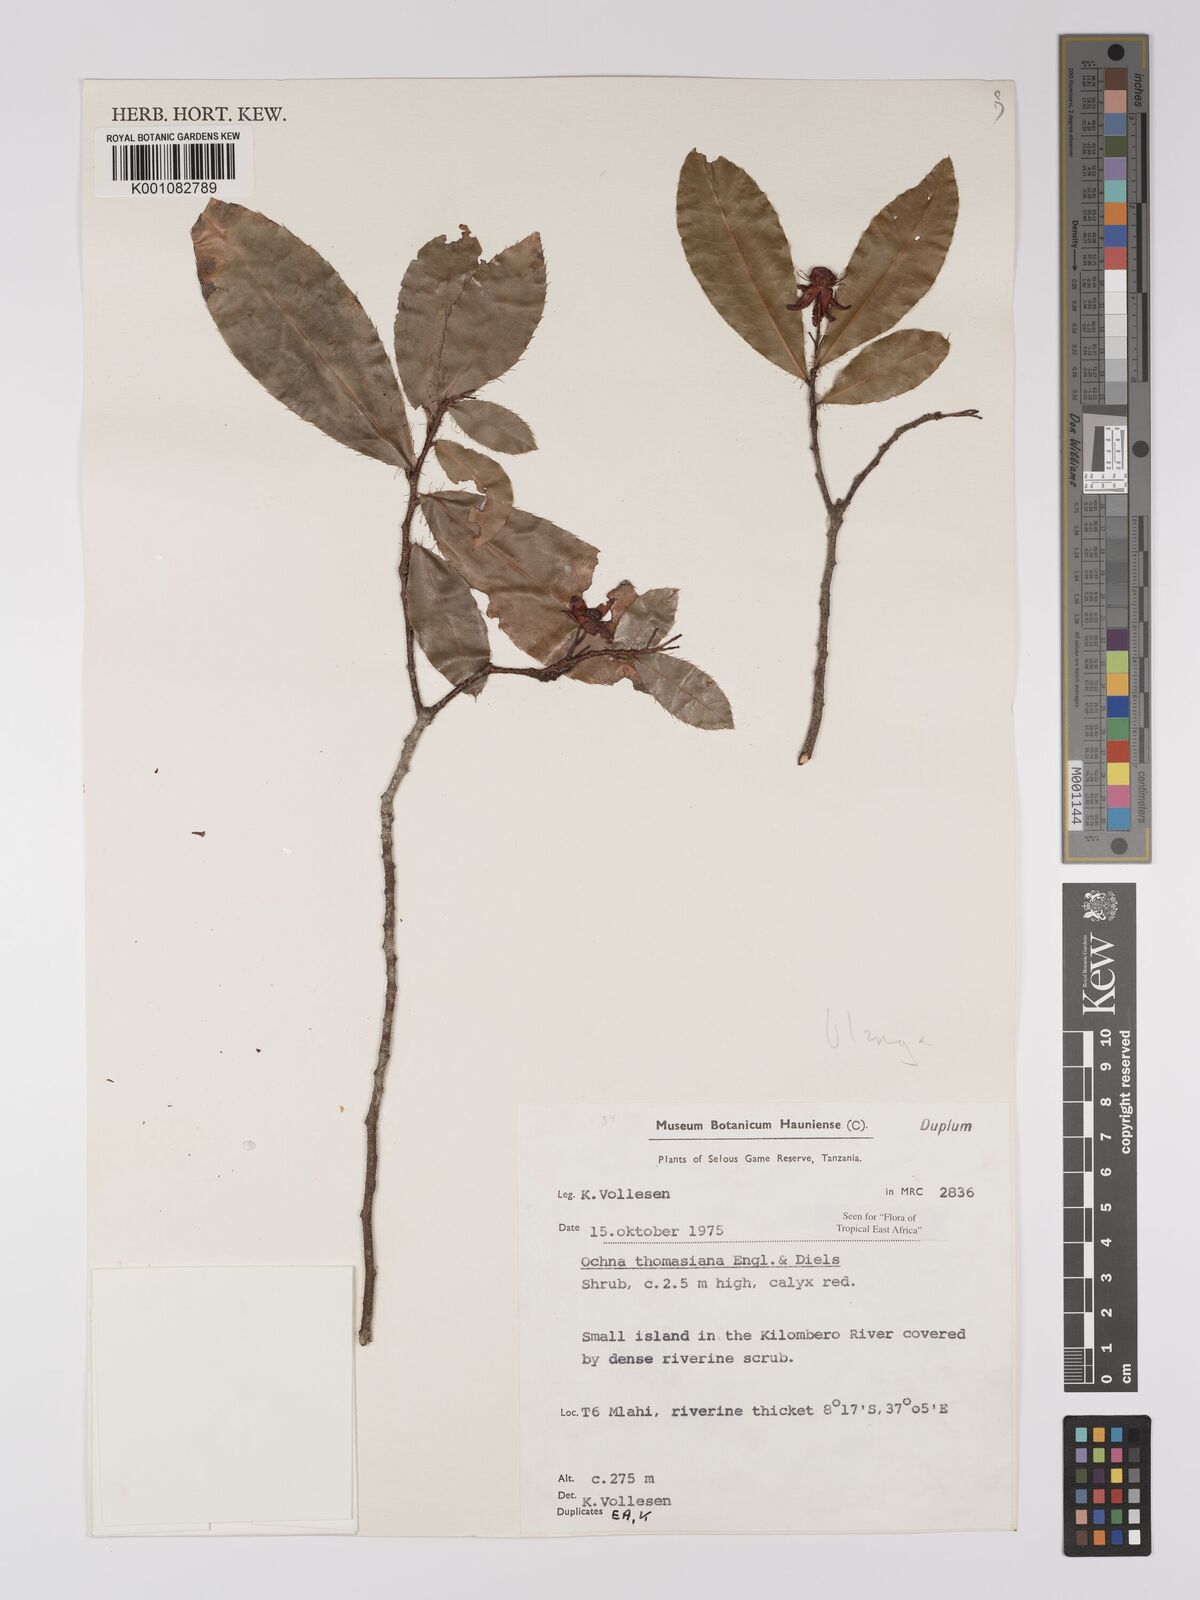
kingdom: Plantae
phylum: Tracheophyta
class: Magnoliopsida
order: Malpighiales
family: Ochnaceae
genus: Ochna
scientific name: Ochna thomasiana
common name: Thomas' bird's-eye bush
